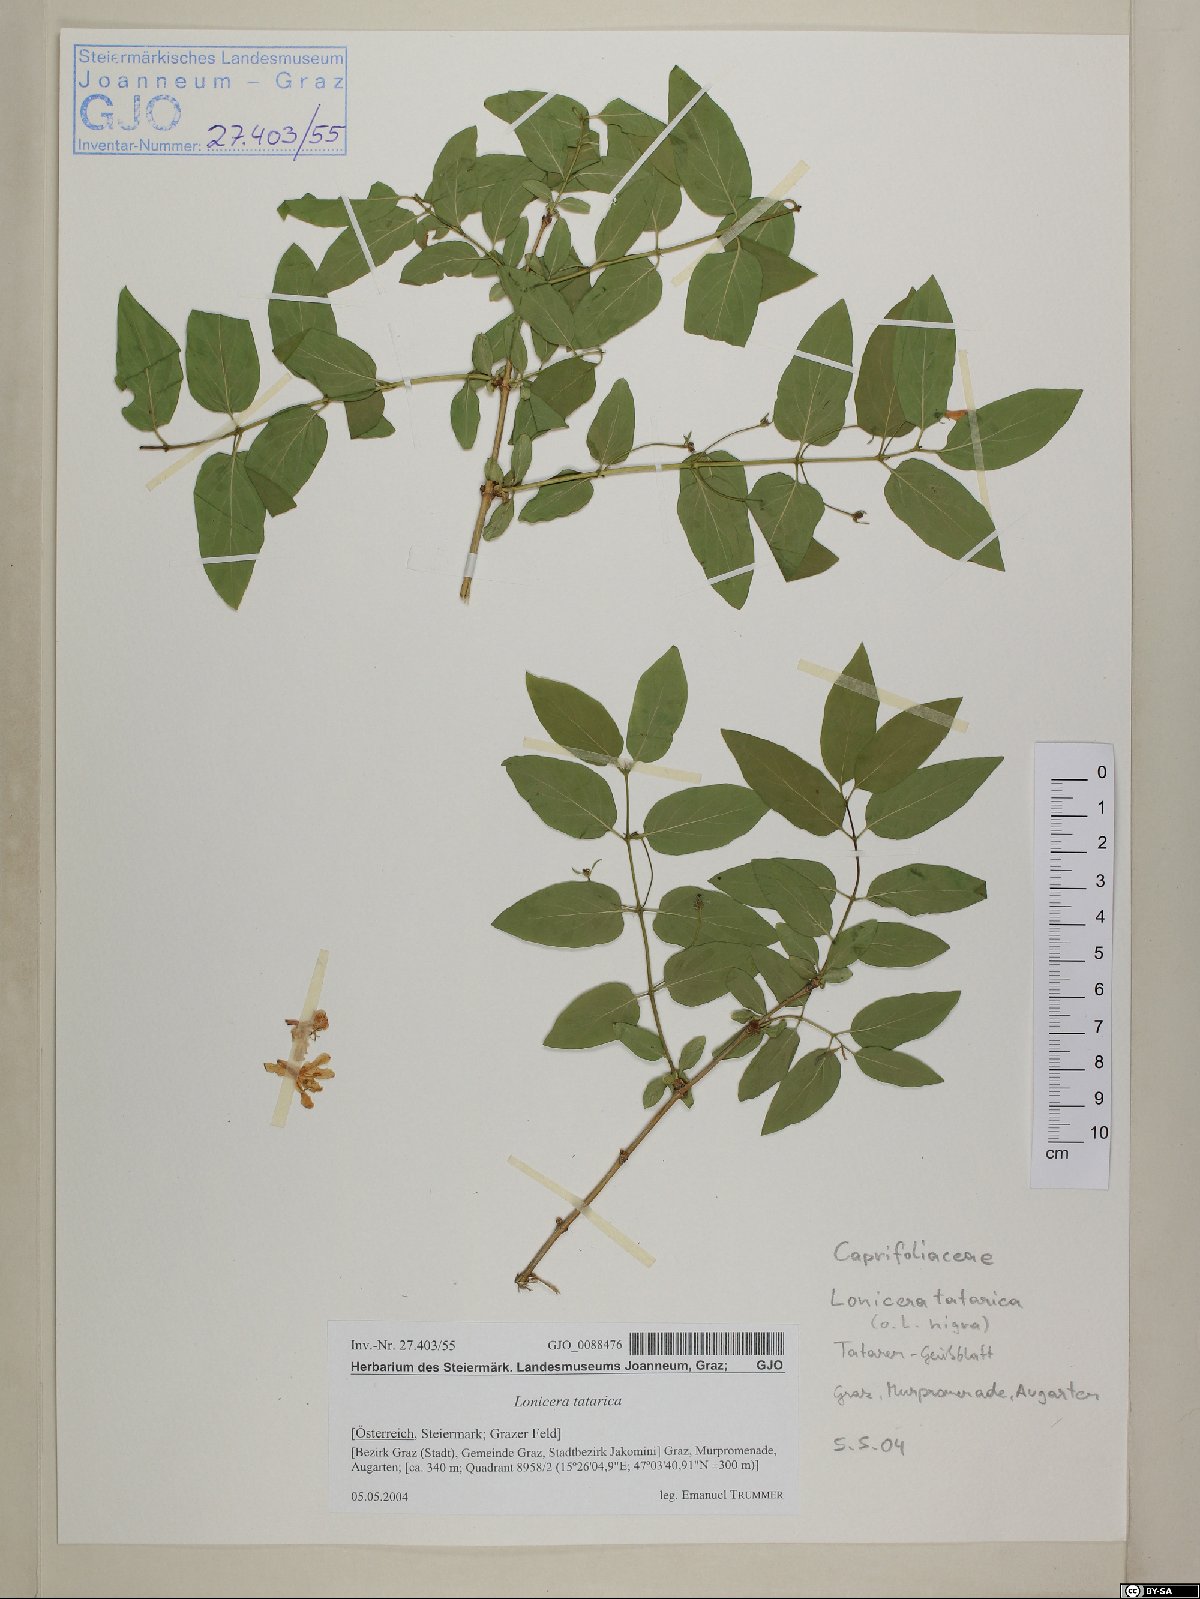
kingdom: Plantae
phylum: Tracheophyta
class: Magnoliopsida
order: Dipsacales
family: Caprifoliaceae
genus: Lonicera
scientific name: Lonicera tatarica
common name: Tatarian honeysuckle
